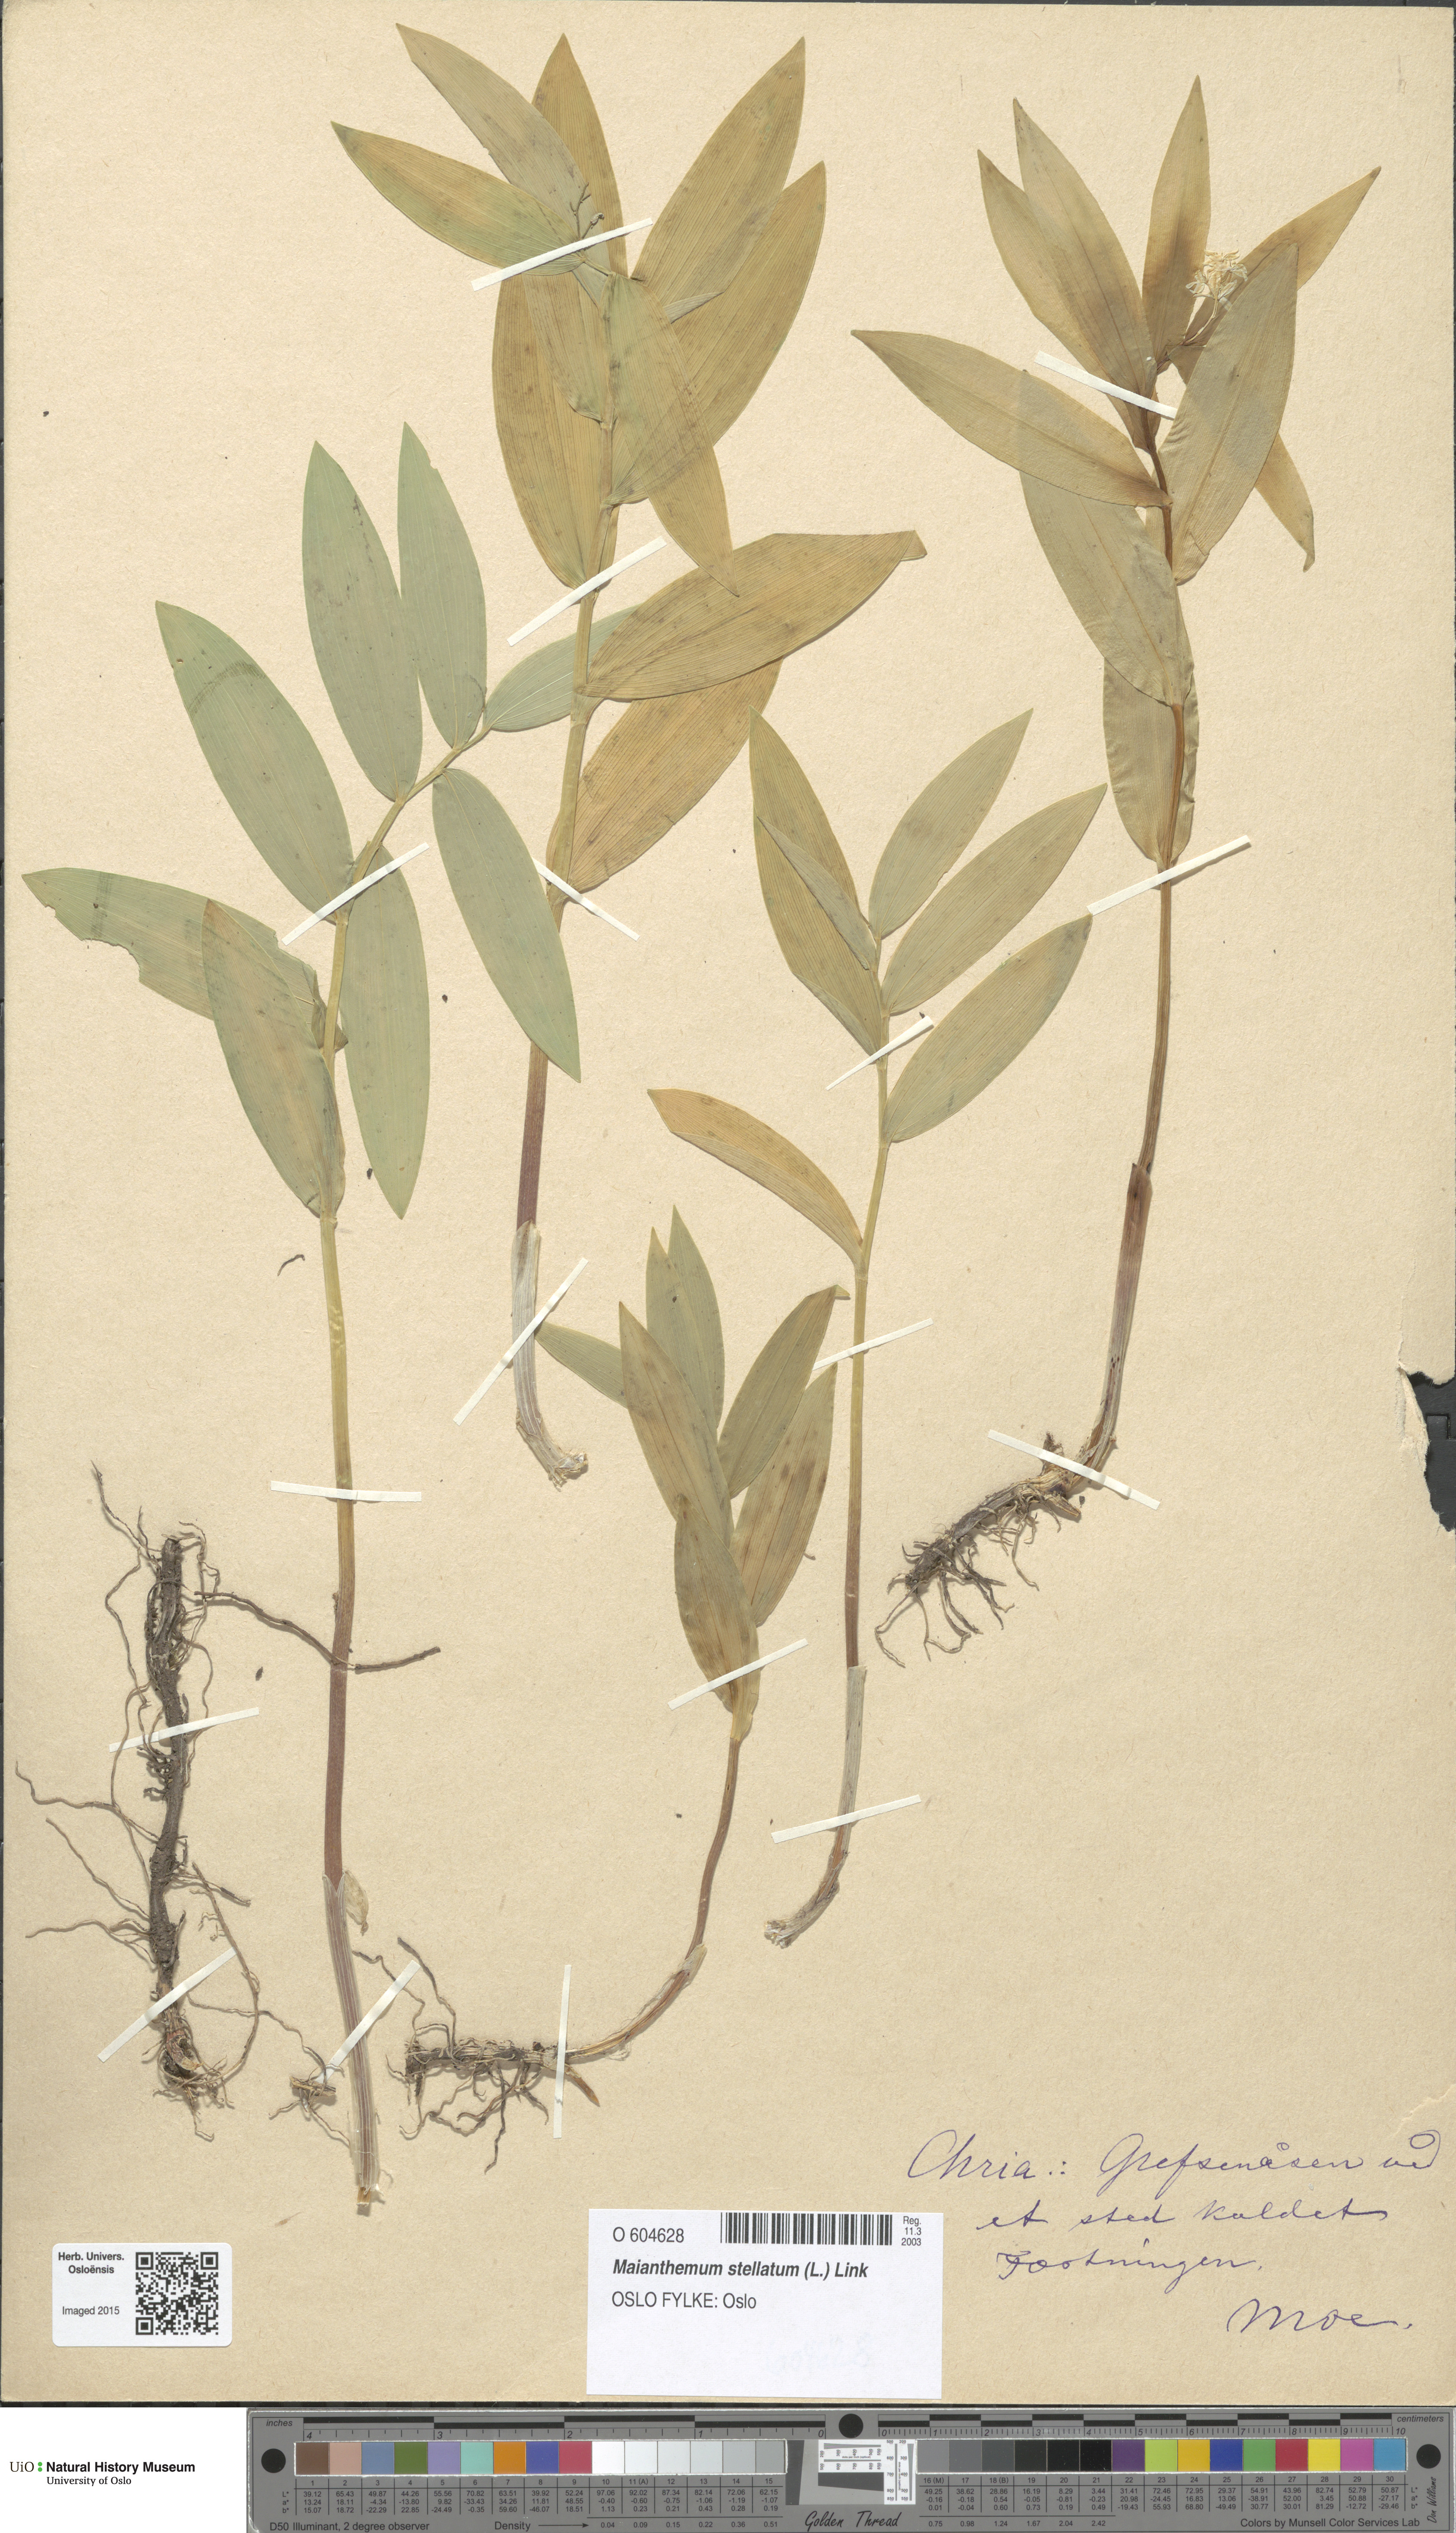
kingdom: Plantae
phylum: Tracheophyta
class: Liliopsida
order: Asparagales
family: Asparagaceae
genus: Maianthemum
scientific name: Maianthemum stellatum
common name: Little false solomon's seal
